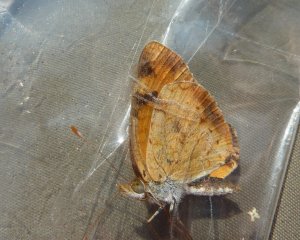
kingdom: Animalia
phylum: Arthropoda
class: Insecta
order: Lepidoptera
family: Nymphalidae
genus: Phyciodes
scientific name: Phyciodes tharos
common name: Northern Crescent
